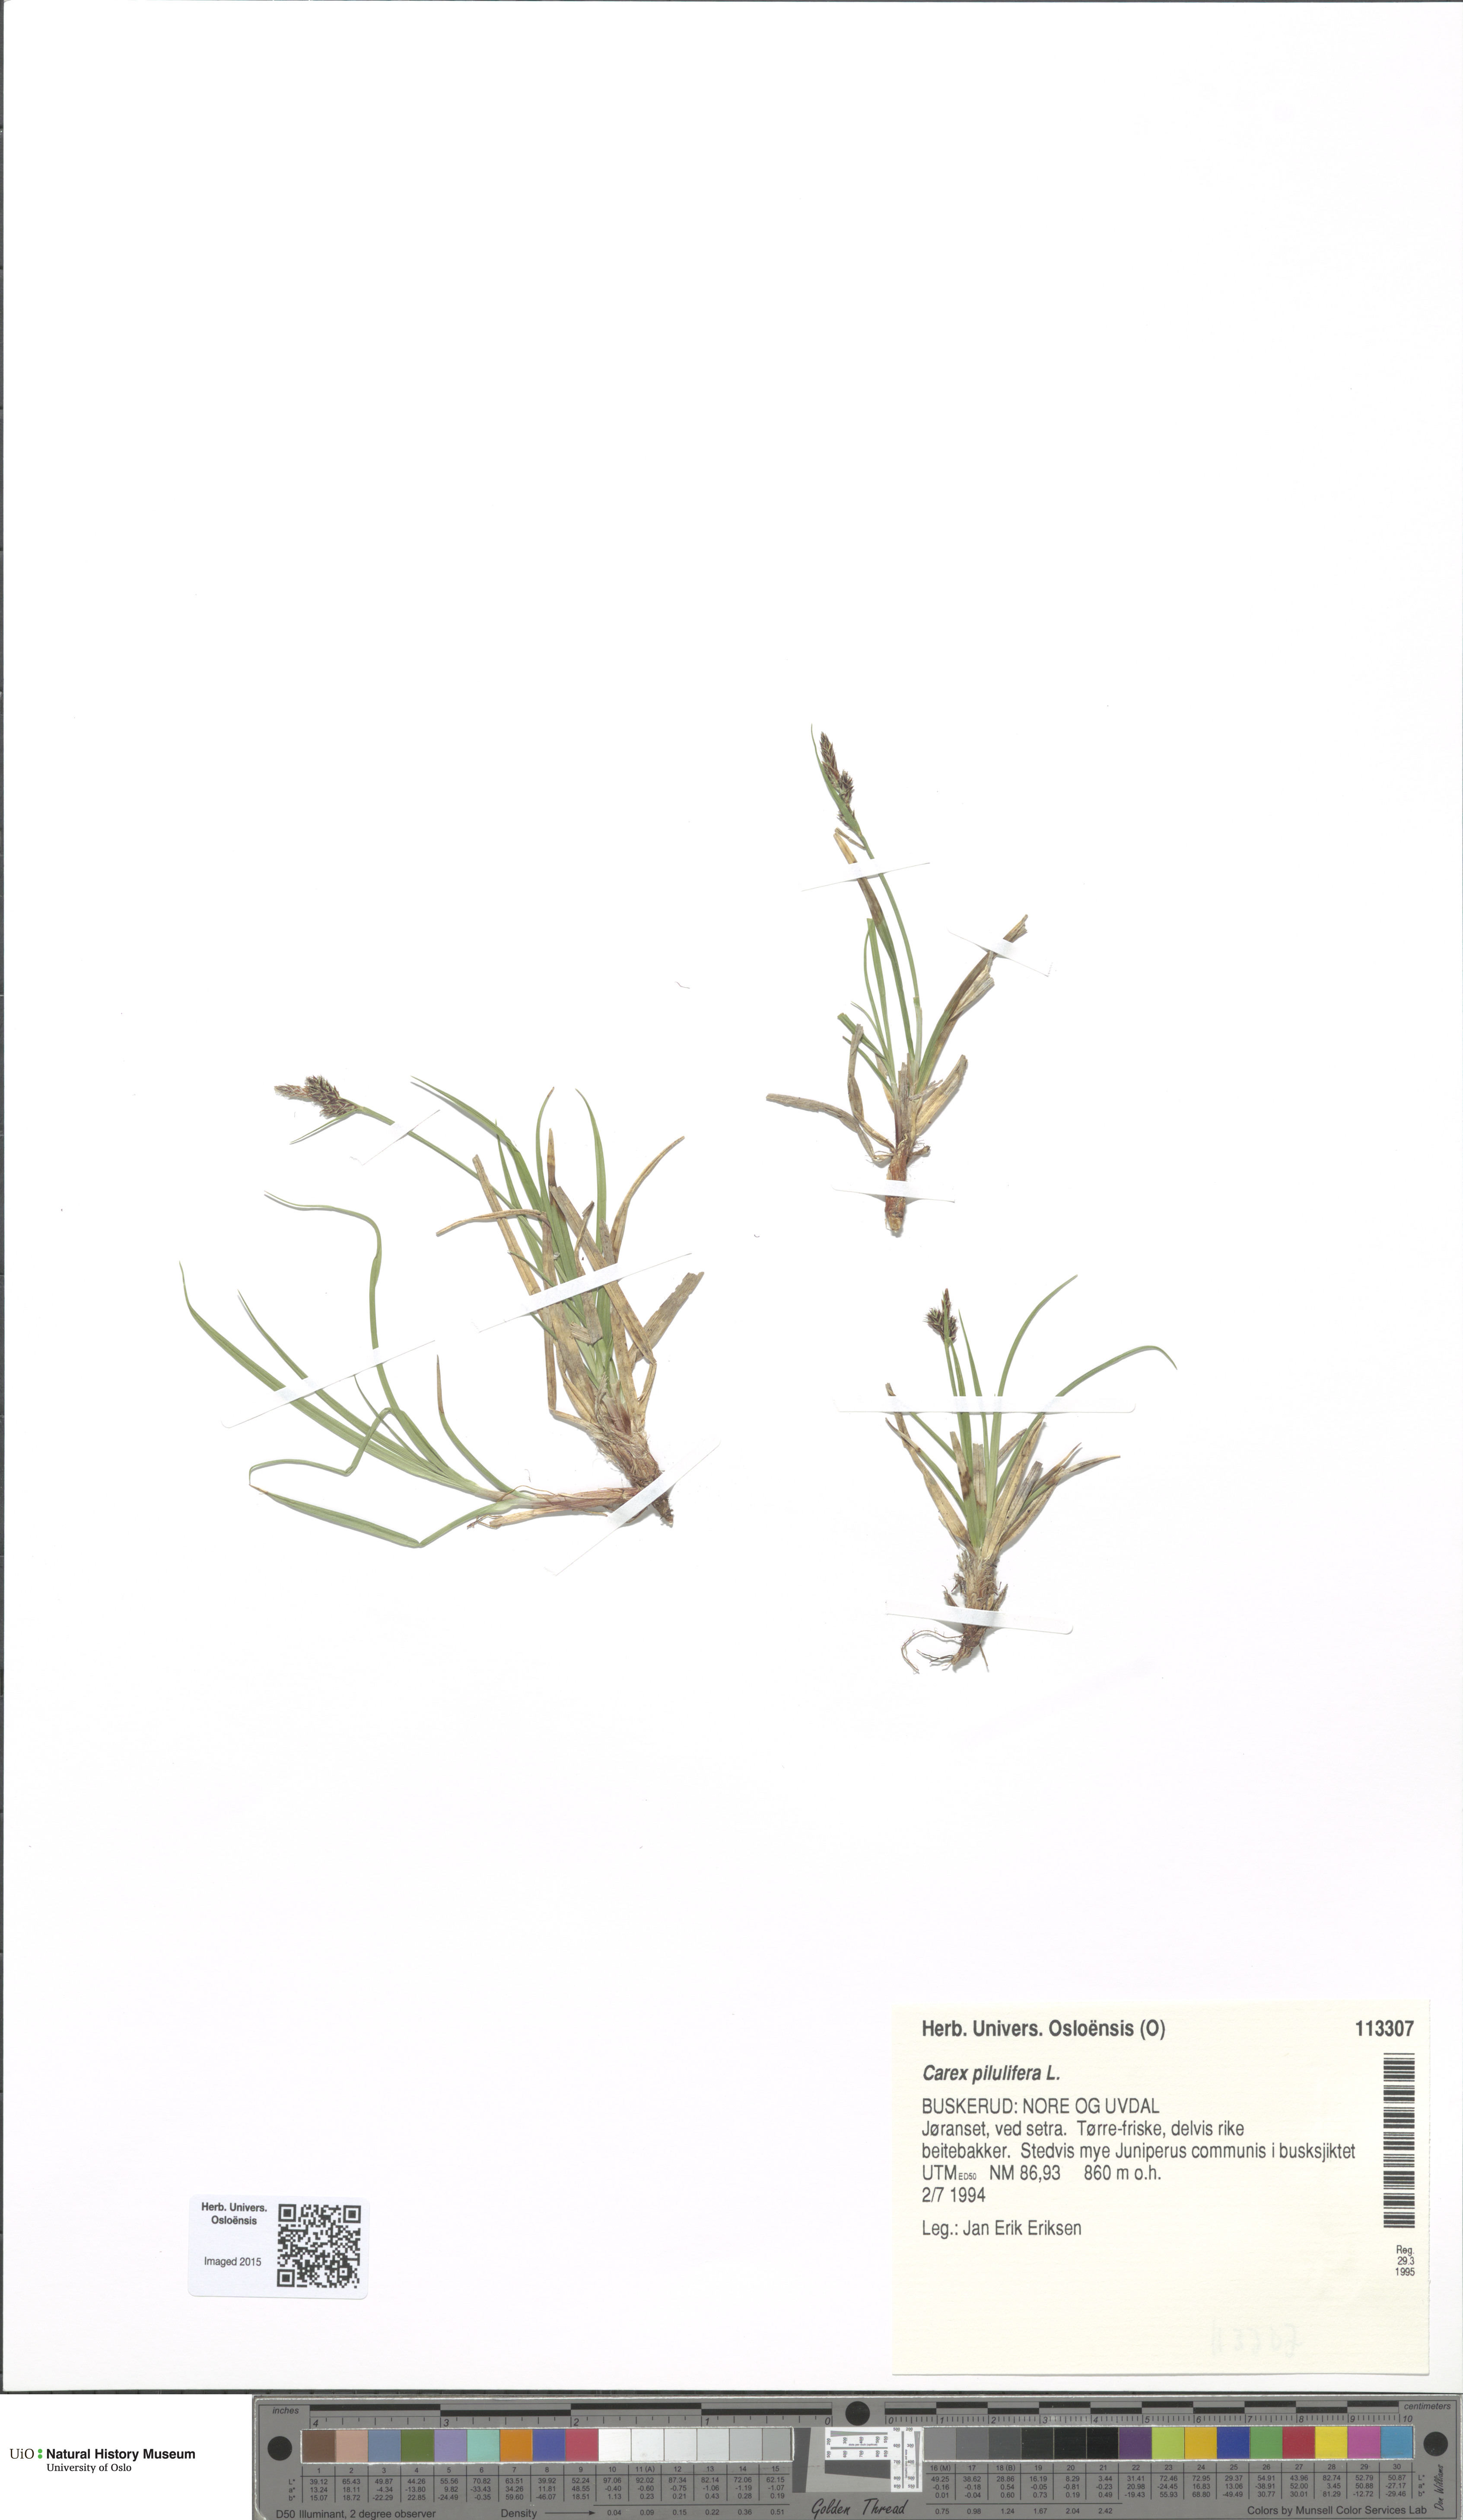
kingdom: Plantae
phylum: Tracheophyta
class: Liliopsida
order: Poales
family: Cyperaceae
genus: Carex
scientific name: Carex pilulifera
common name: Pill sedge
